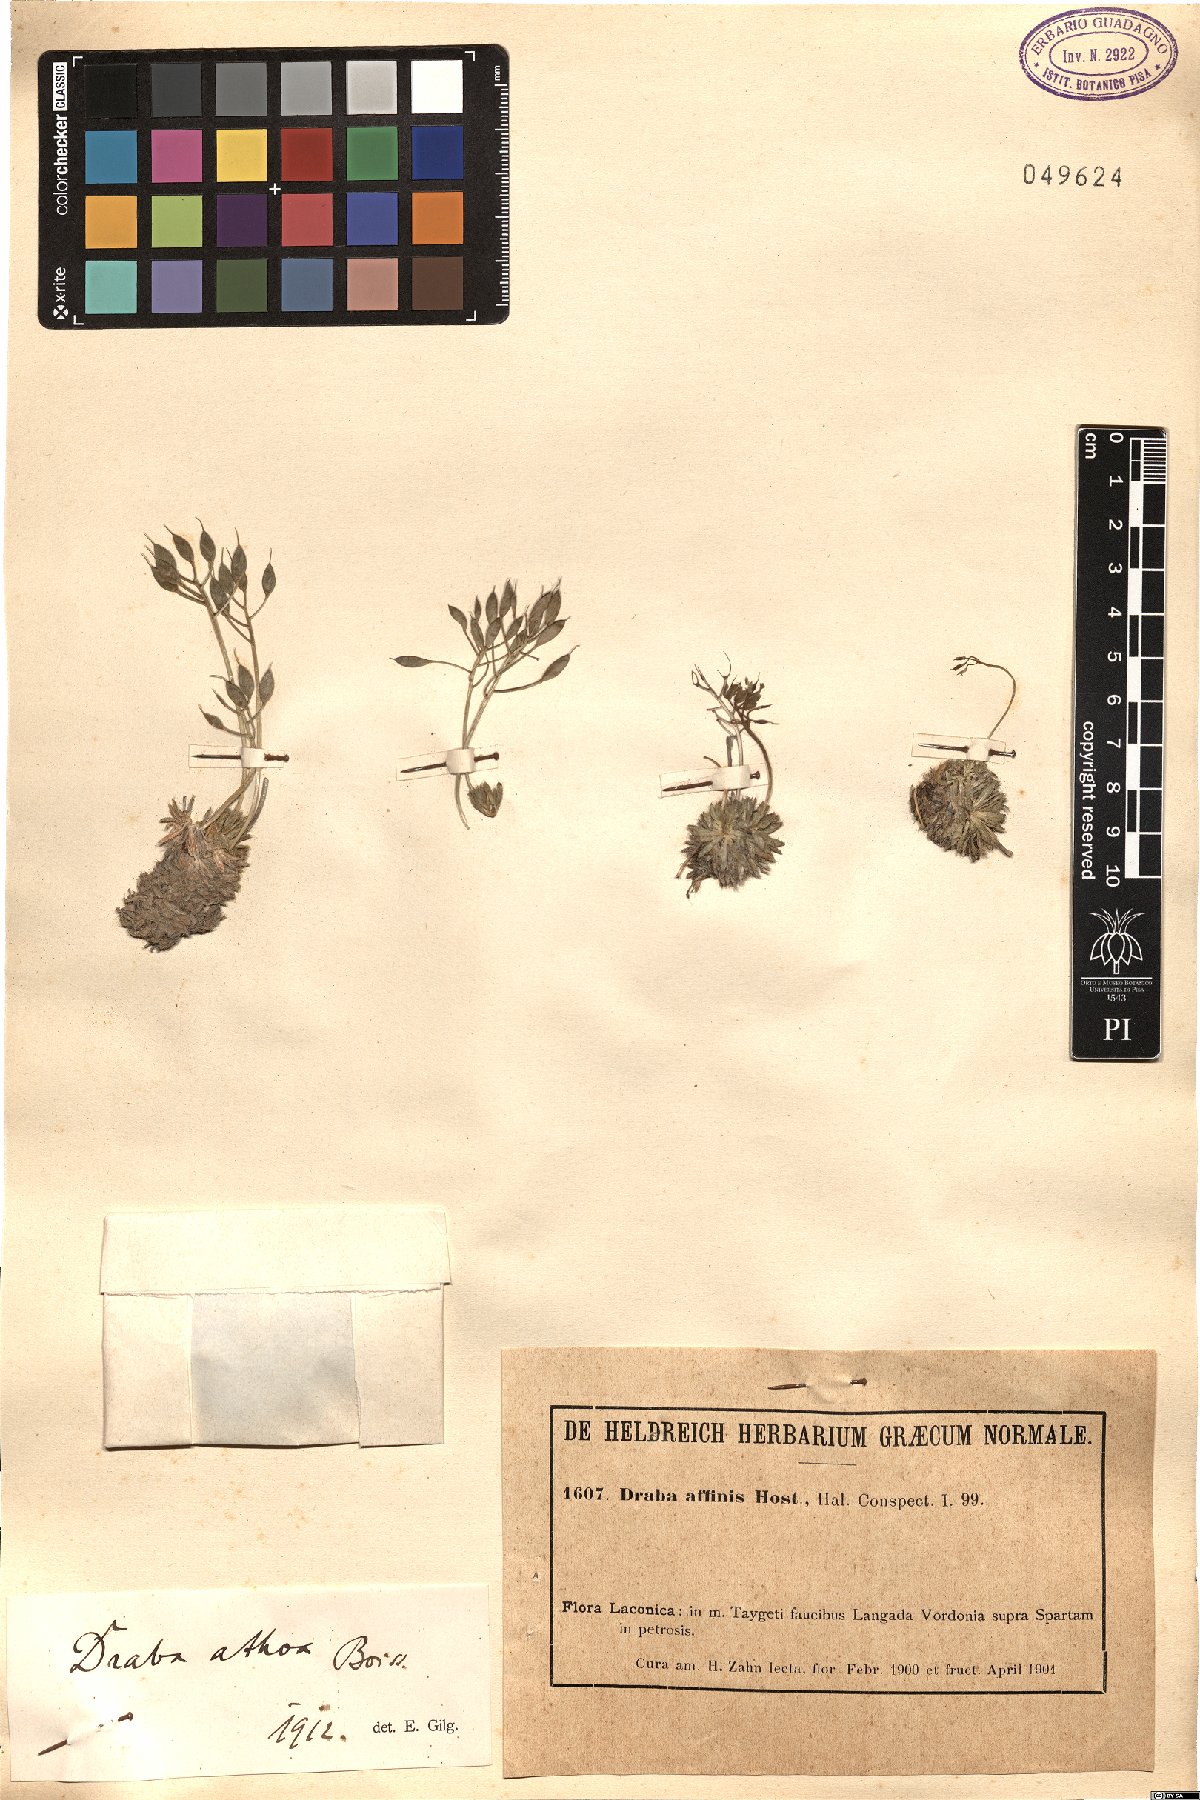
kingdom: Plantae
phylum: Tracheophyta
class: Magnoliopsida
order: Brassicales
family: Brassicaceae
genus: Draba
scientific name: Draba lasiocarpa
